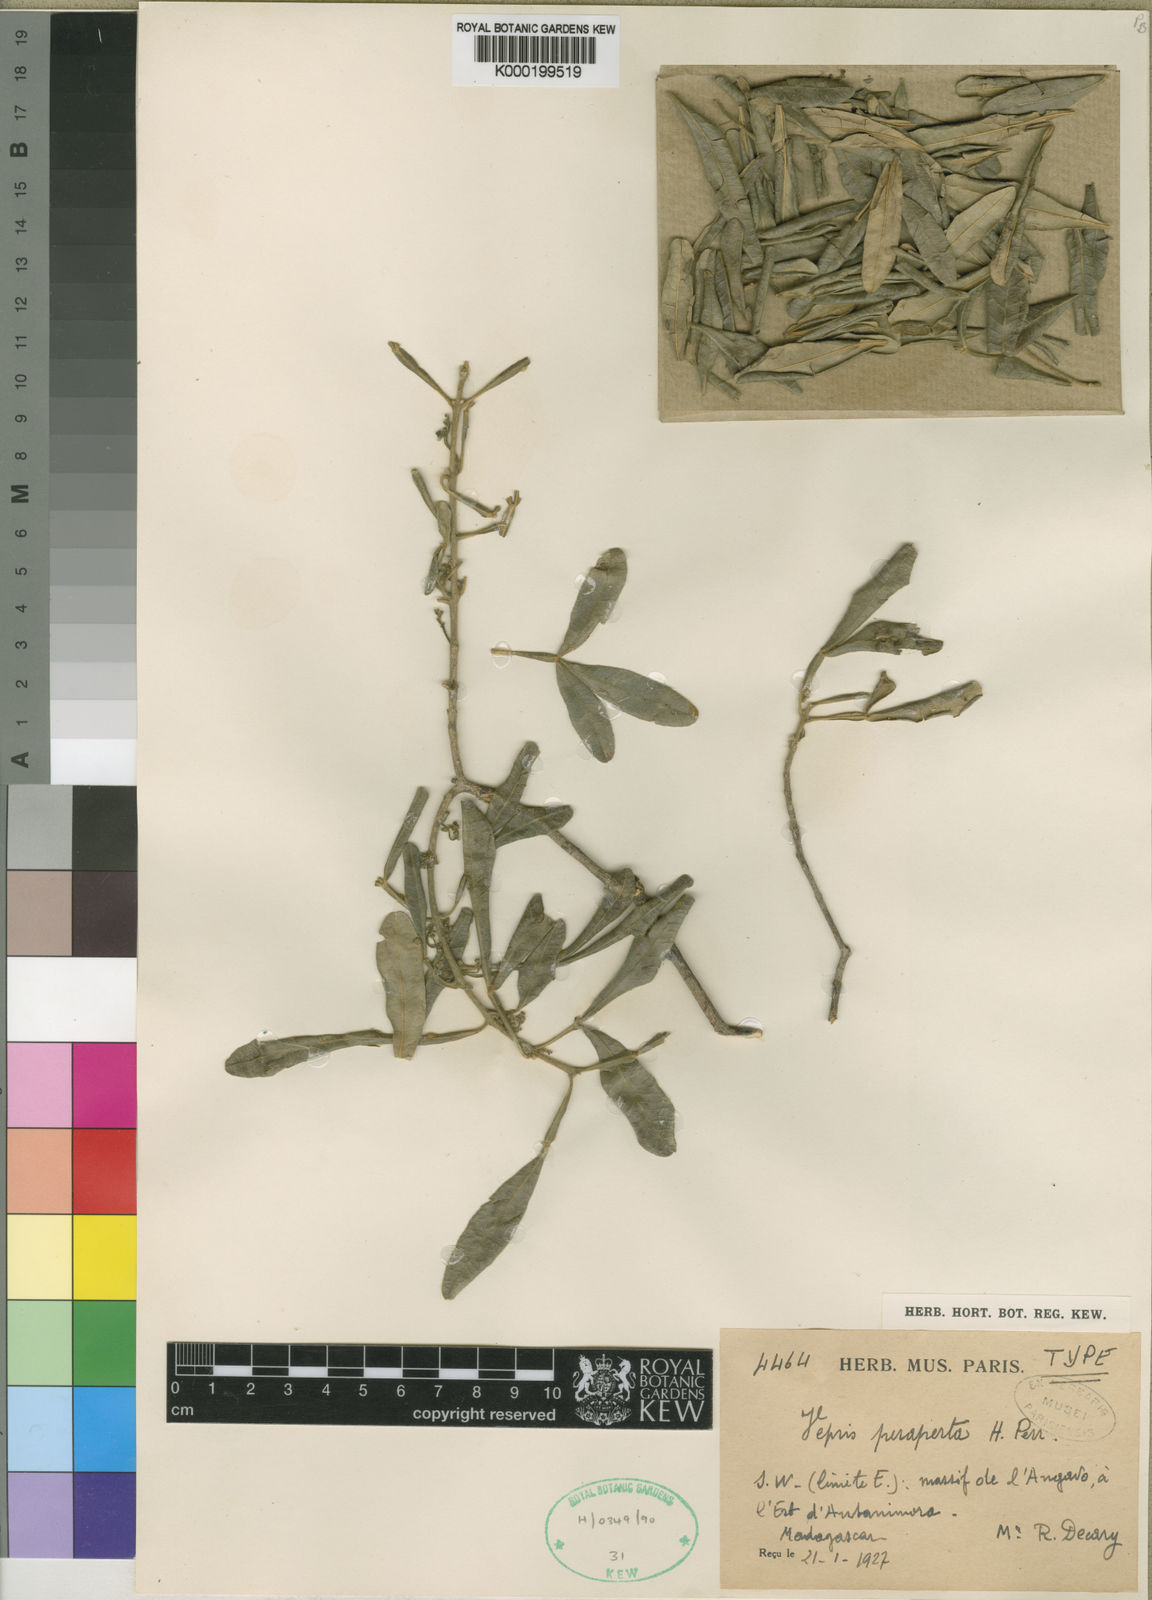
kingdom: Plantae
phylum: Tracheophyta
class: Magnoliopsida
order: Sapindales
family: Rutaceae
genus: Vepris
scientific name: Vepris peraperta
